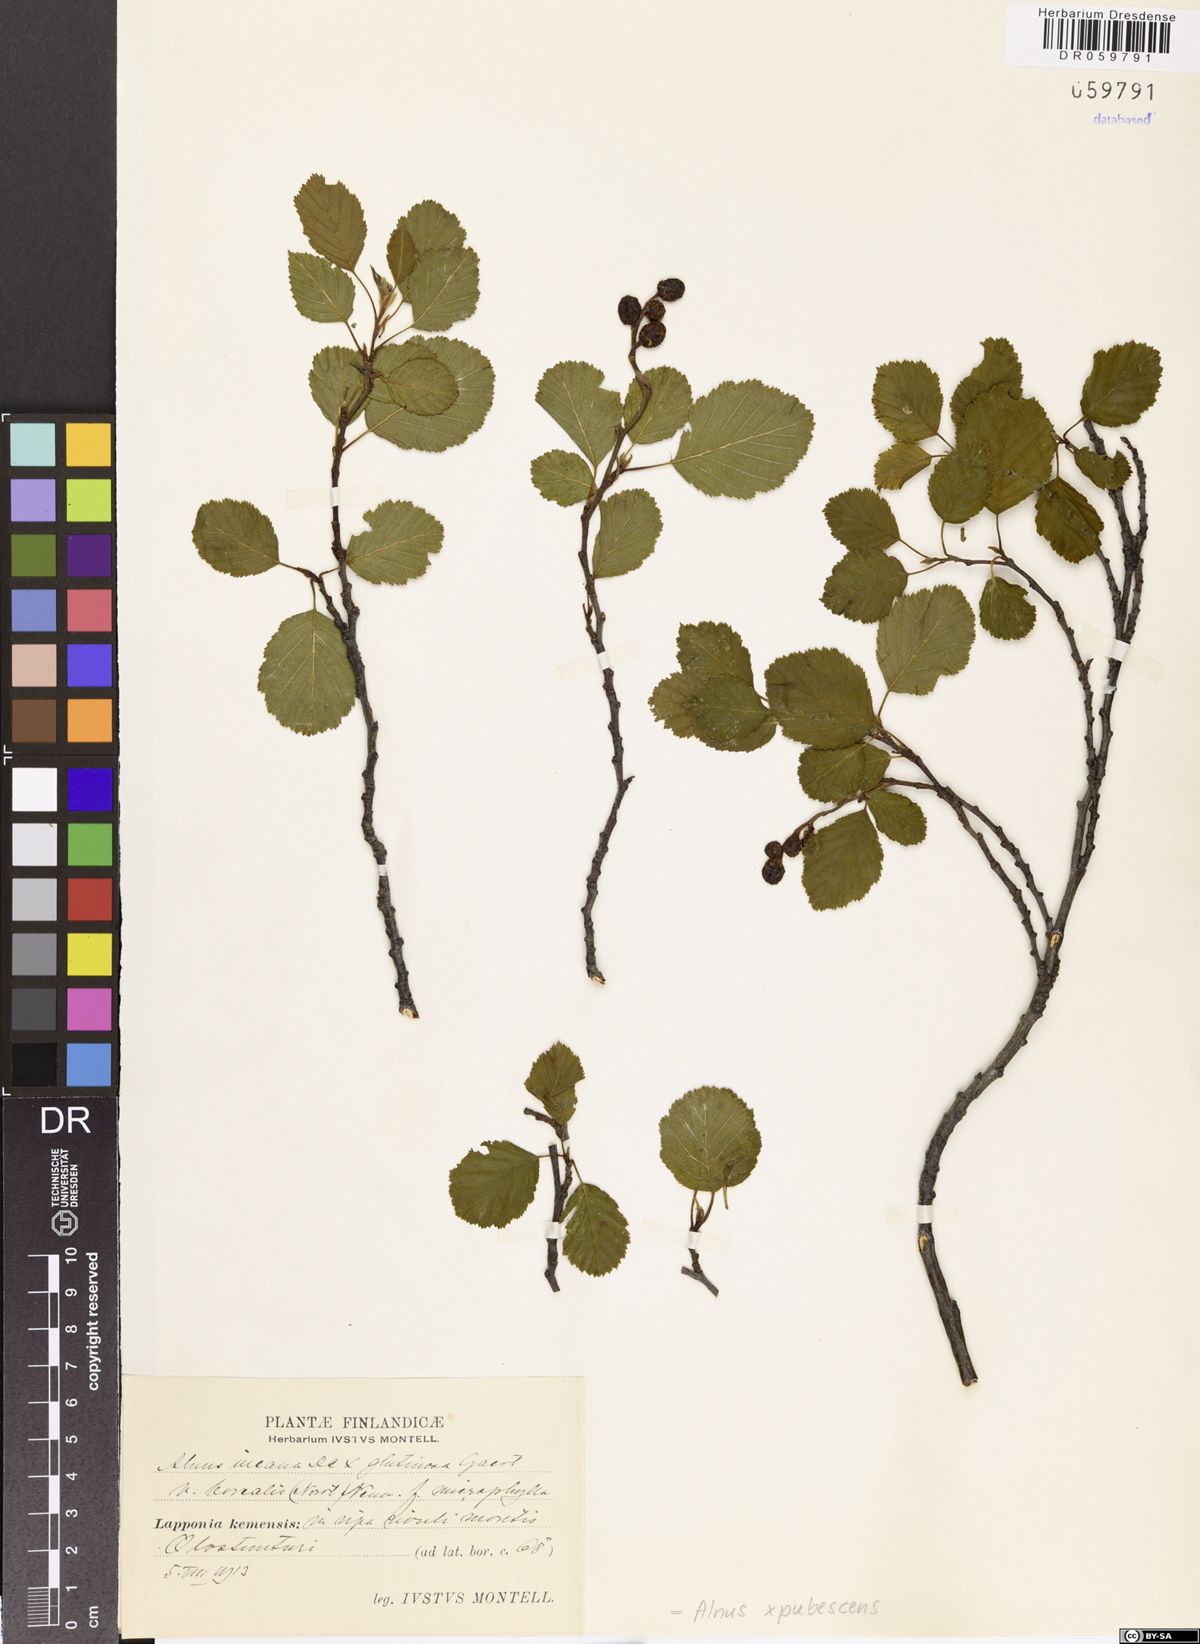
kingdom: Plantae
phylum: Tracheophyta
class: Magnoliopsida
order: Fagales
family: Betulaceae
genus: Alnus
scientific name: Alnus pubescens
